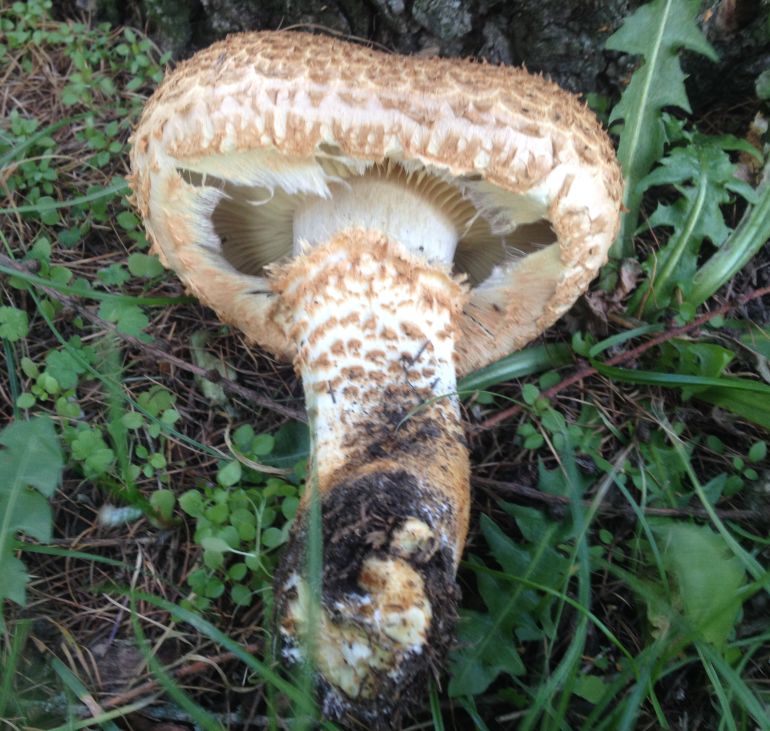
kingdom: Fungi
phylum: Basidiomycota
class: Agaricomycetes
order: Agaricales
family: Strophariaceae
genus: Pholiota
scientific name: Pholiota squarrosa
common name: krumskællet skælhat
